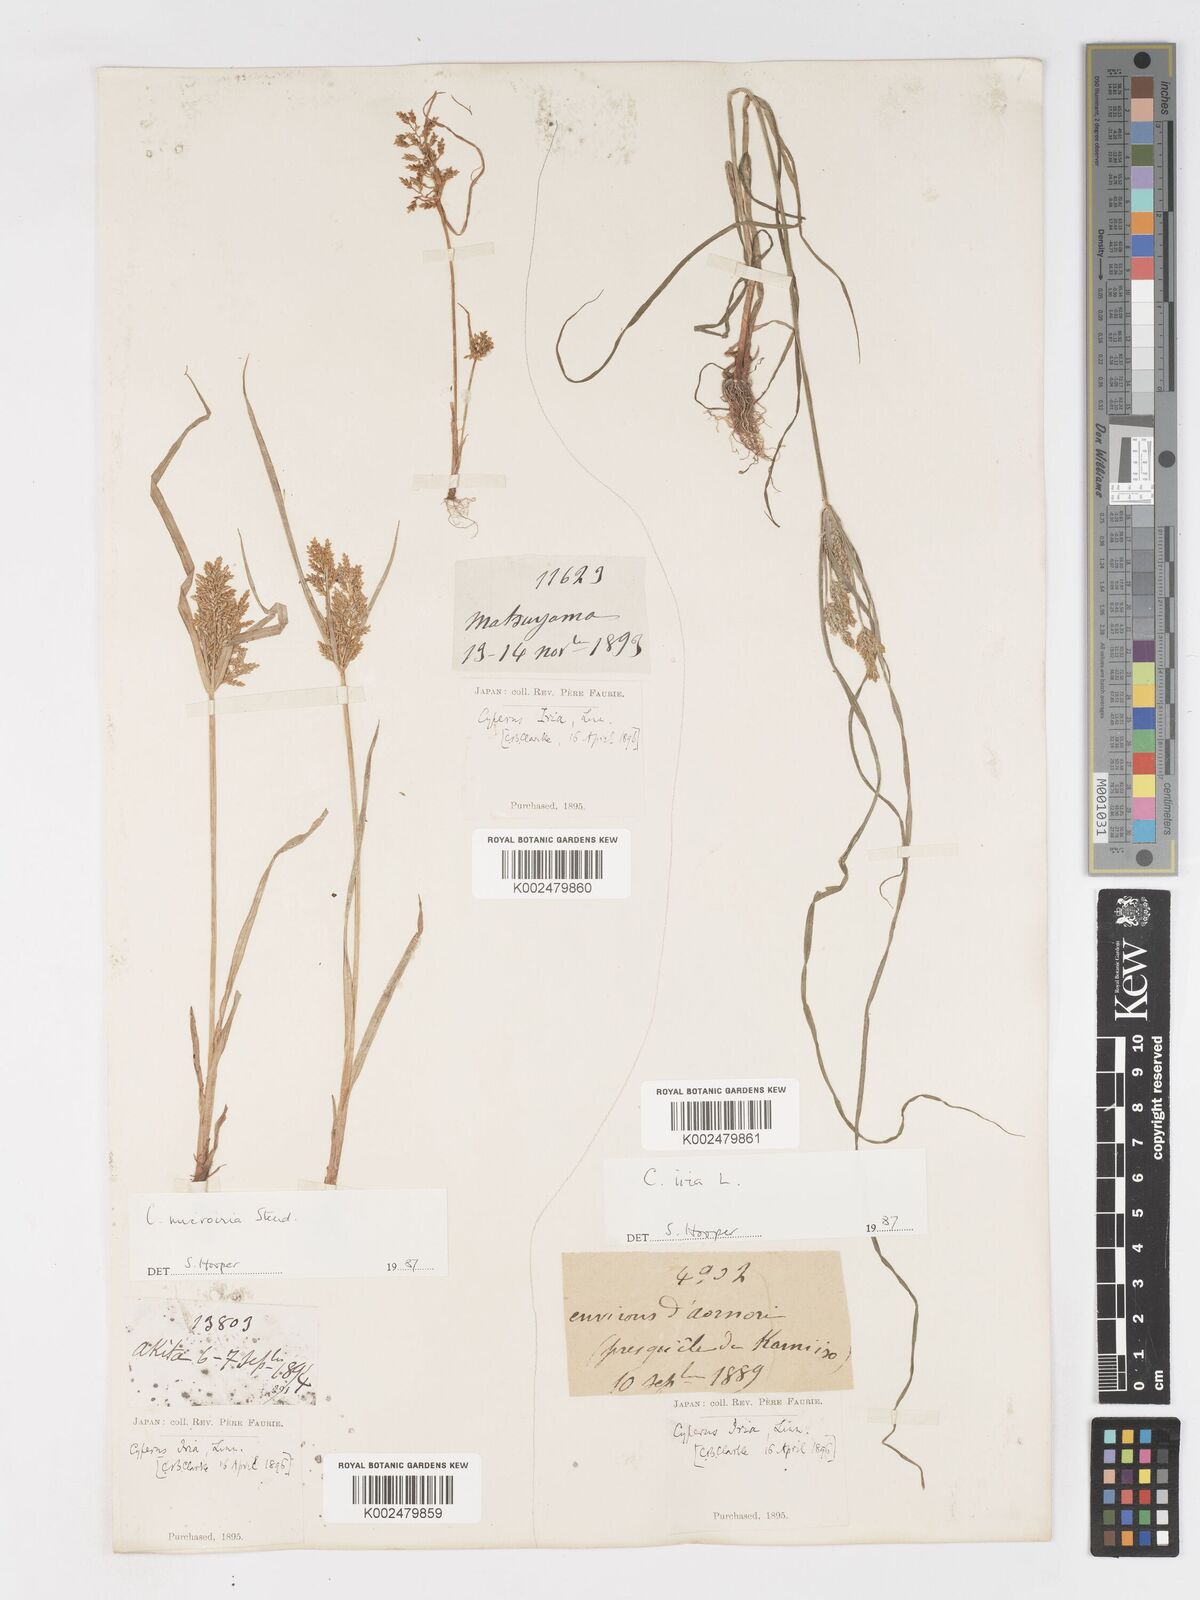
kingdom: Plantae
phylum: Tracheophyta
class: Liliopsida
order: Poales
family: Cyperaceae
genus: Cyperus
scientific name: Cyperus iria
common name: Ricefield flatsedge
